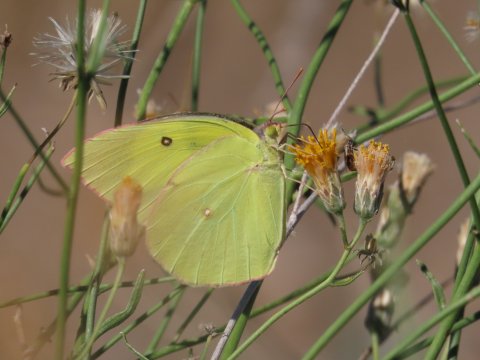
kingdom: Animalia
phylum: Arthropoda
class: Insecta
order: Lepidoptera
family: Pieridae
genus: Zerene
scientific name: Zerene cesonia
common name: Southern Dogface
